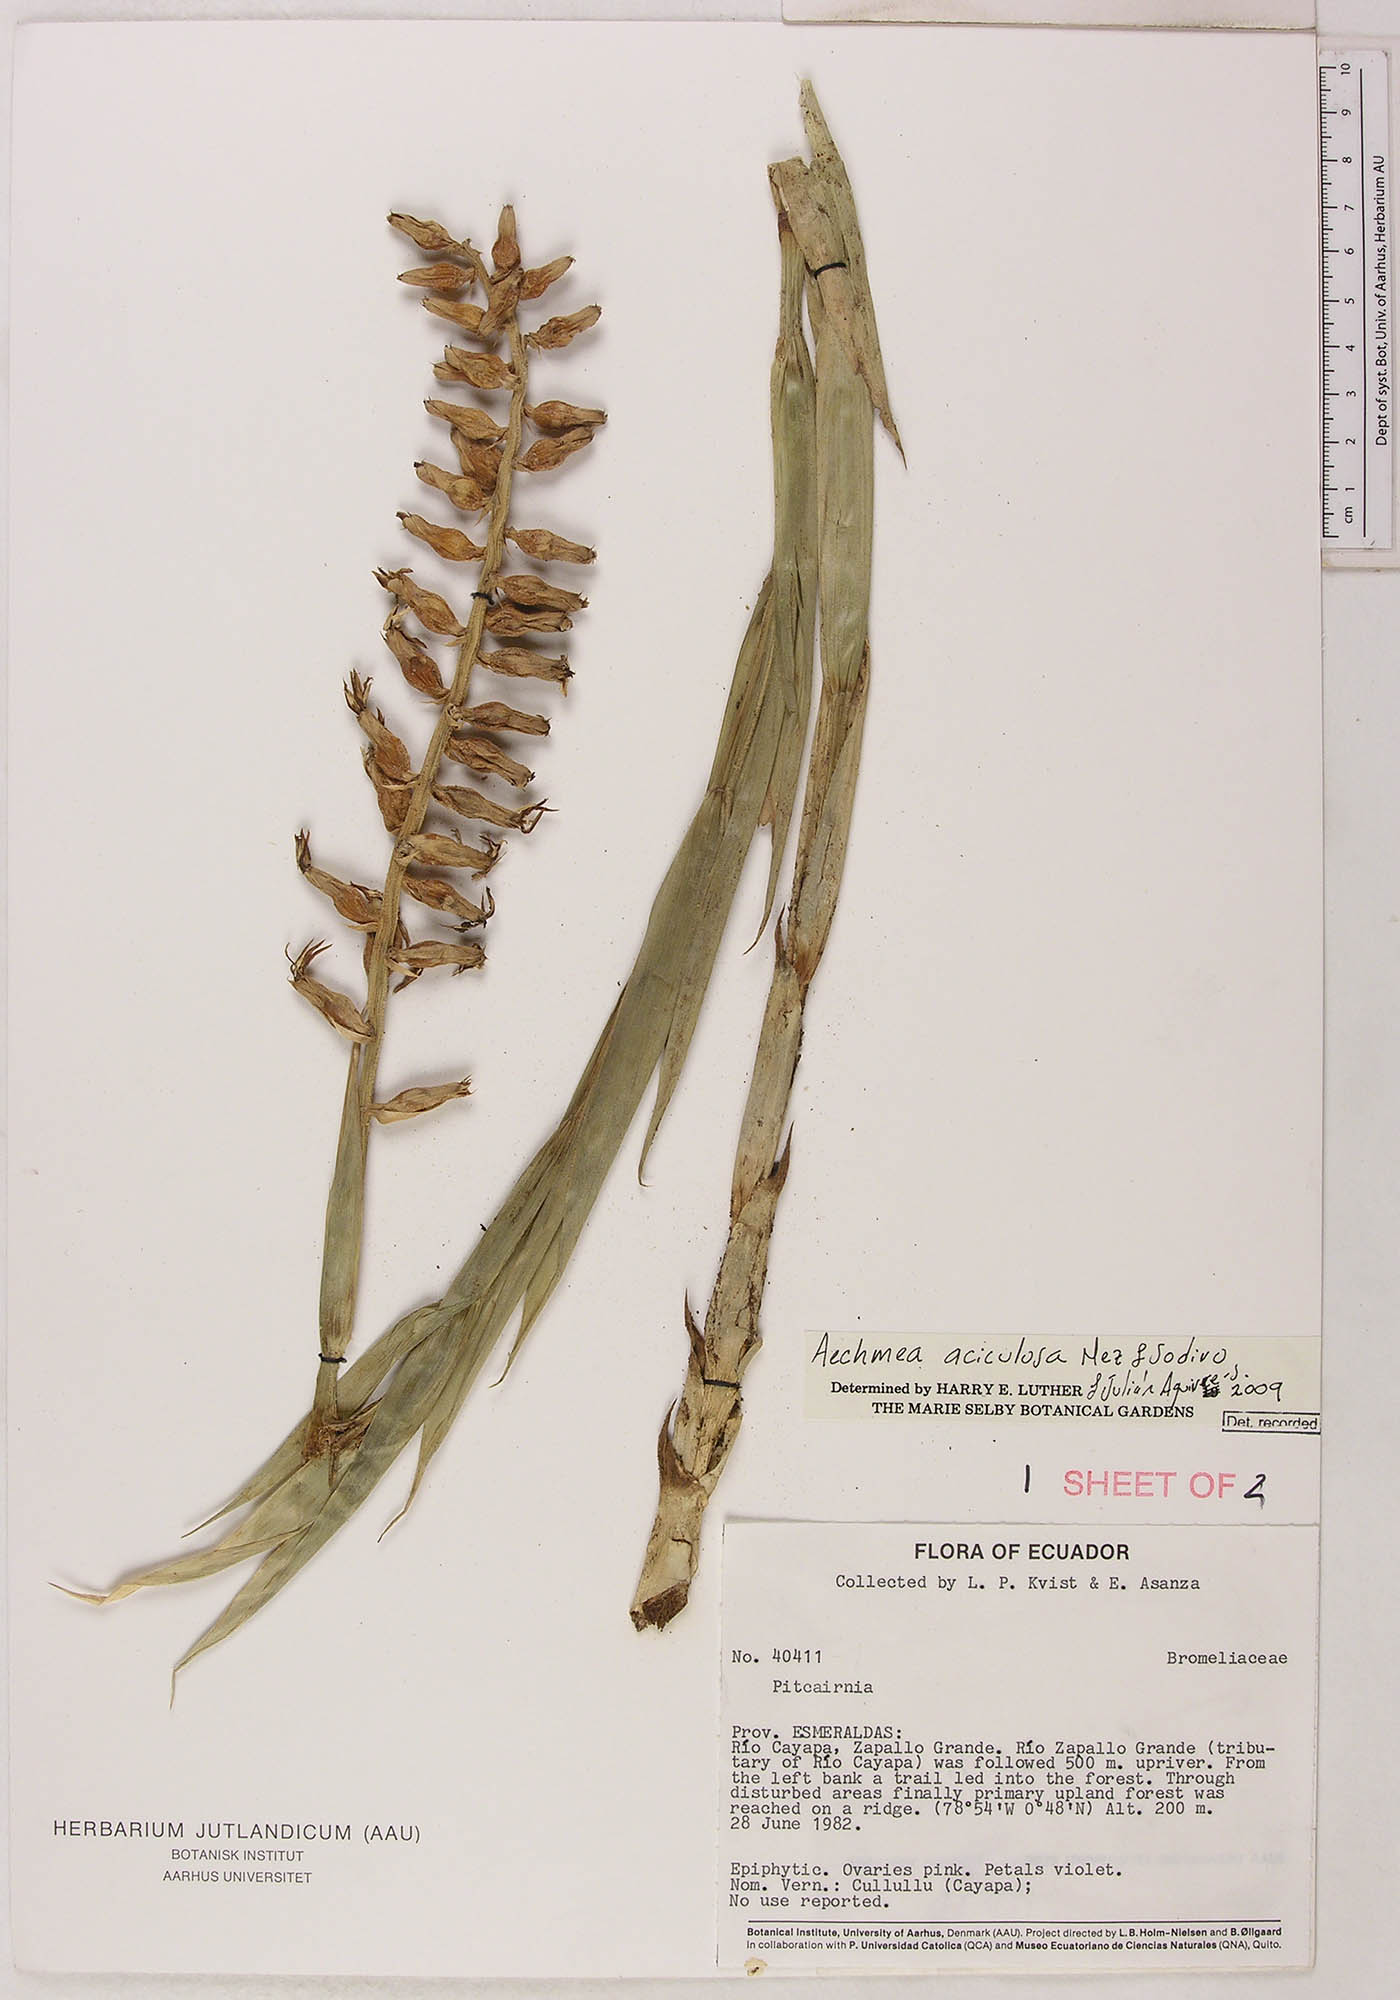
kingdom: Plantae
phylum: Tracheophyta
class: Liliopsida
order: Poales
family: Bromeliaceae
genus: Ronnbergia
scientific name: Ronnbergia aciculosa
